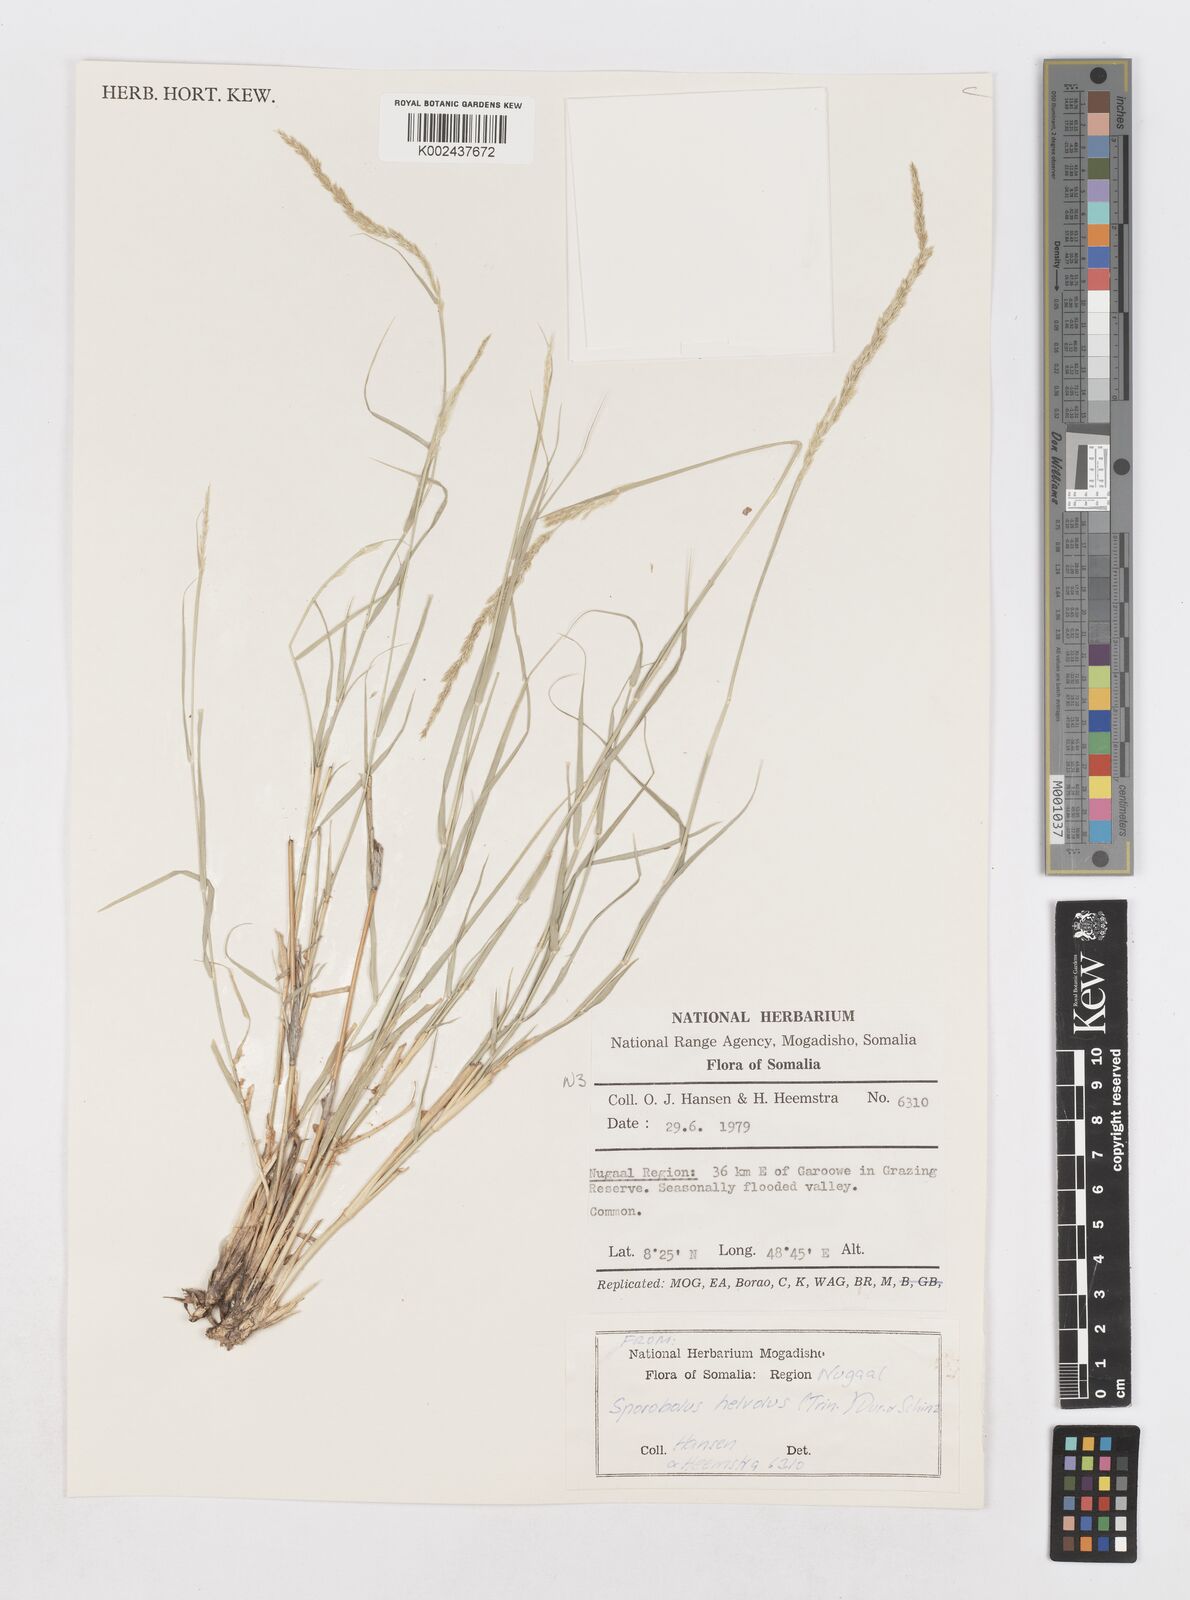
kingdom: Plantae
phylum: Tracheophyta
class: Liliopsida
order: Poales
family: Poaceae
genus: Sporobolus
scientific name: Sporobolus helvolus
